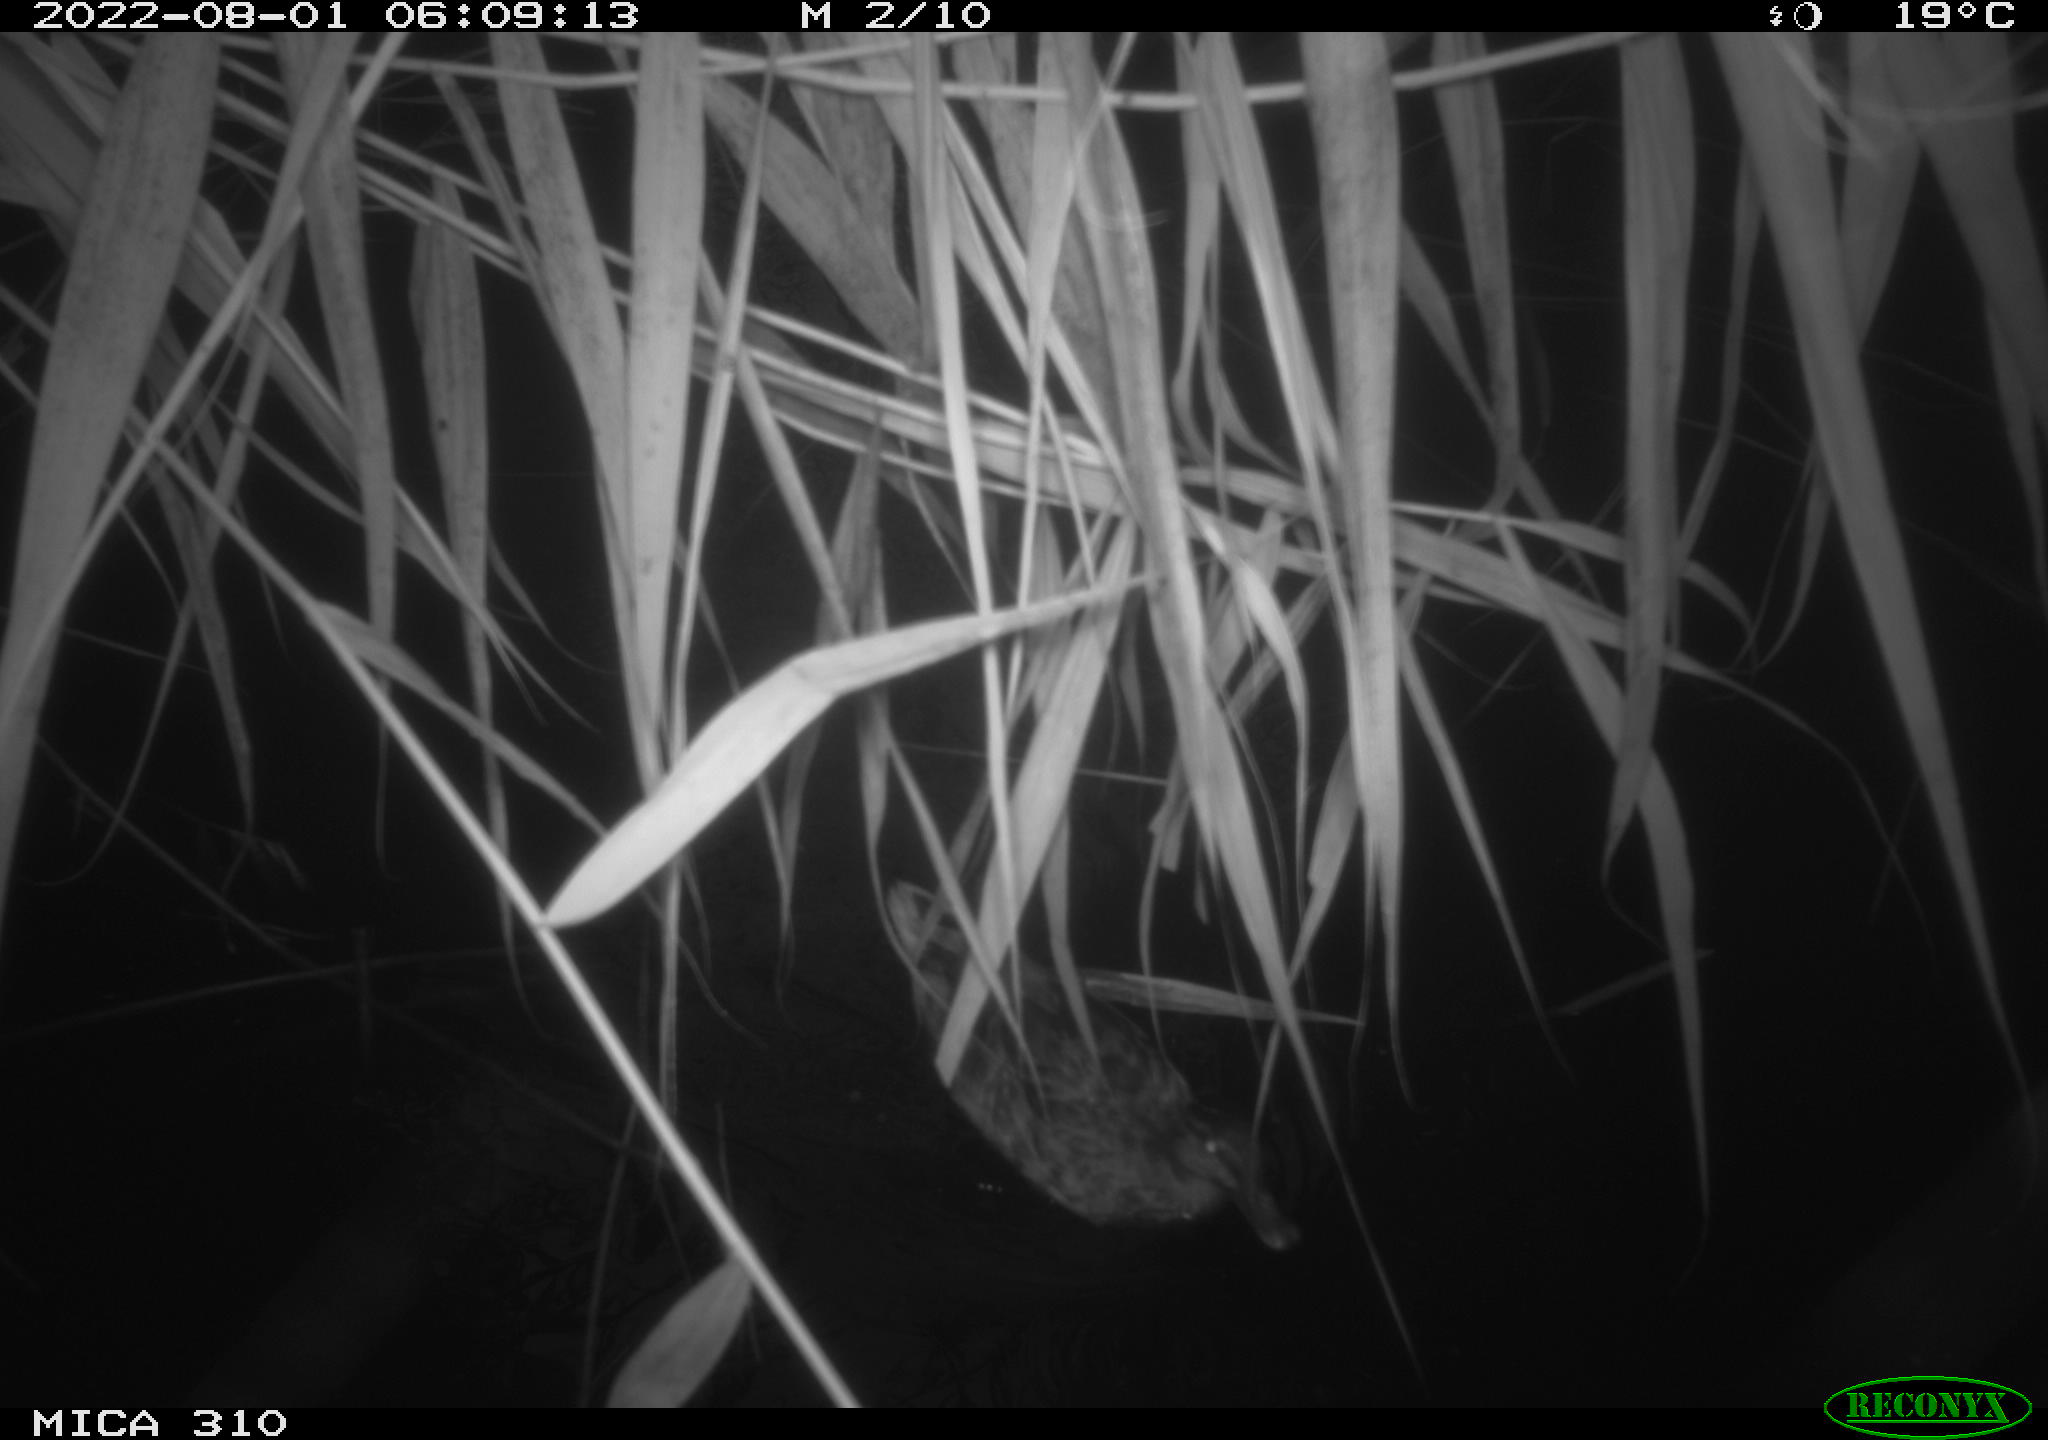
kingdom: Animalia
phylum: Chordata
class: Aves
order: Anseriformes
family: Anatidae
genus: Anas
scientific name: Anas platyrhynchos
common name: Mallard
